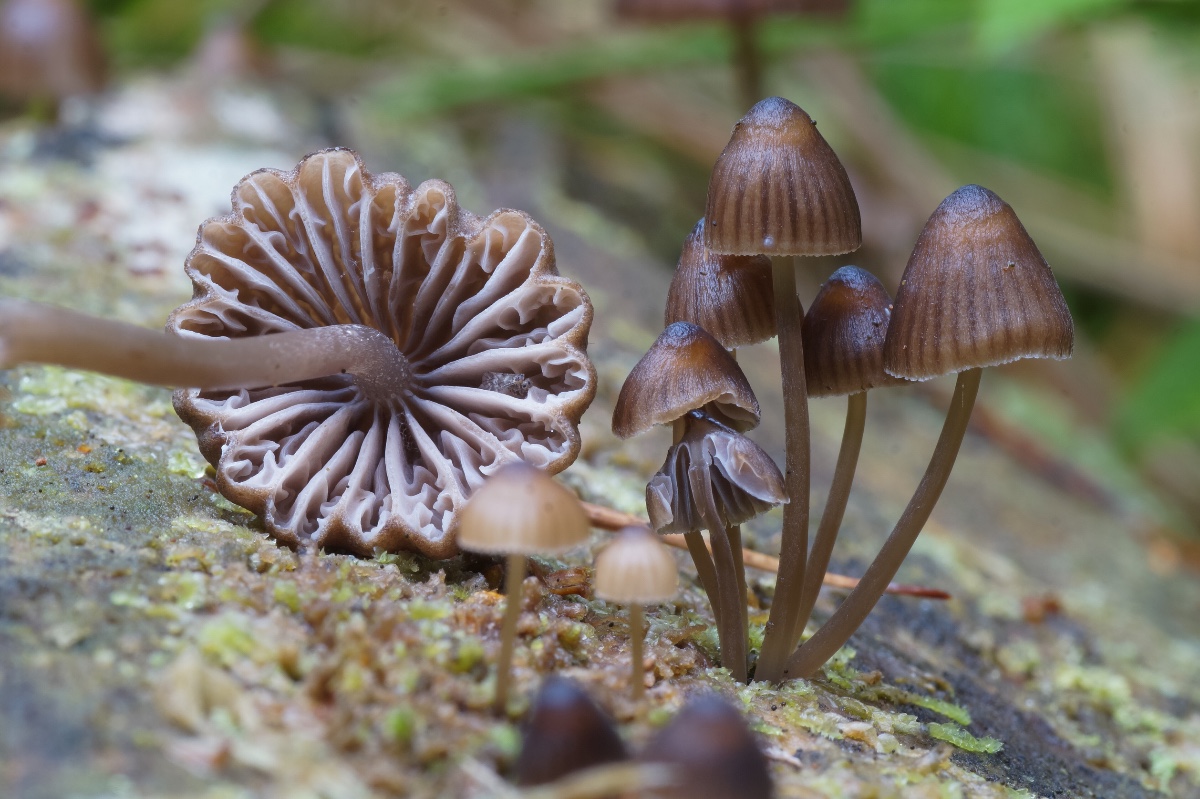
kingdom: Fungi
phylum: Basidiomycota
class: Agaricomycetes
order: Agaricales
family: Mycenaceae
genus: Mycena
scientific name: Mycena stipata
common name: stinkende huesvamp
